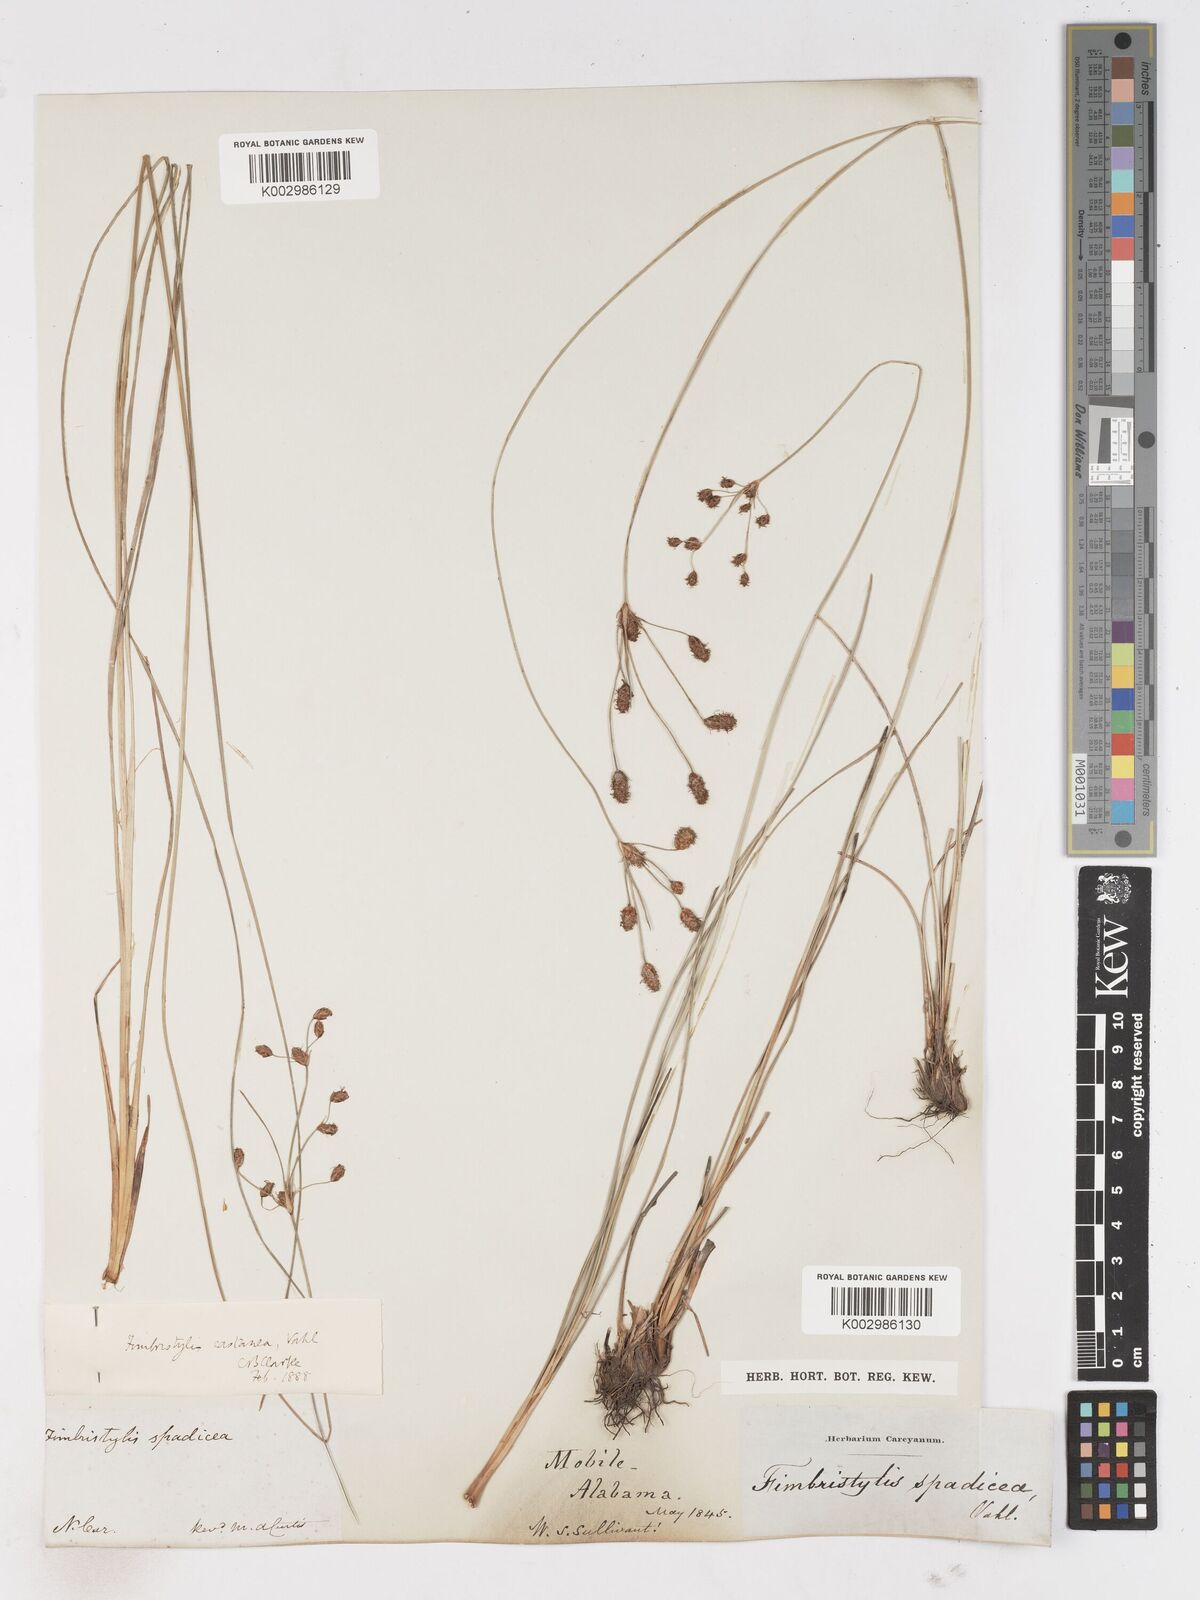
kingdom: Plantae
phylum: Tracheophyta
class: Liliopsida
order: Poales
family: Cyperaceae
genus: Fimbristylis
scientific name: Fimbristylis spadicea
